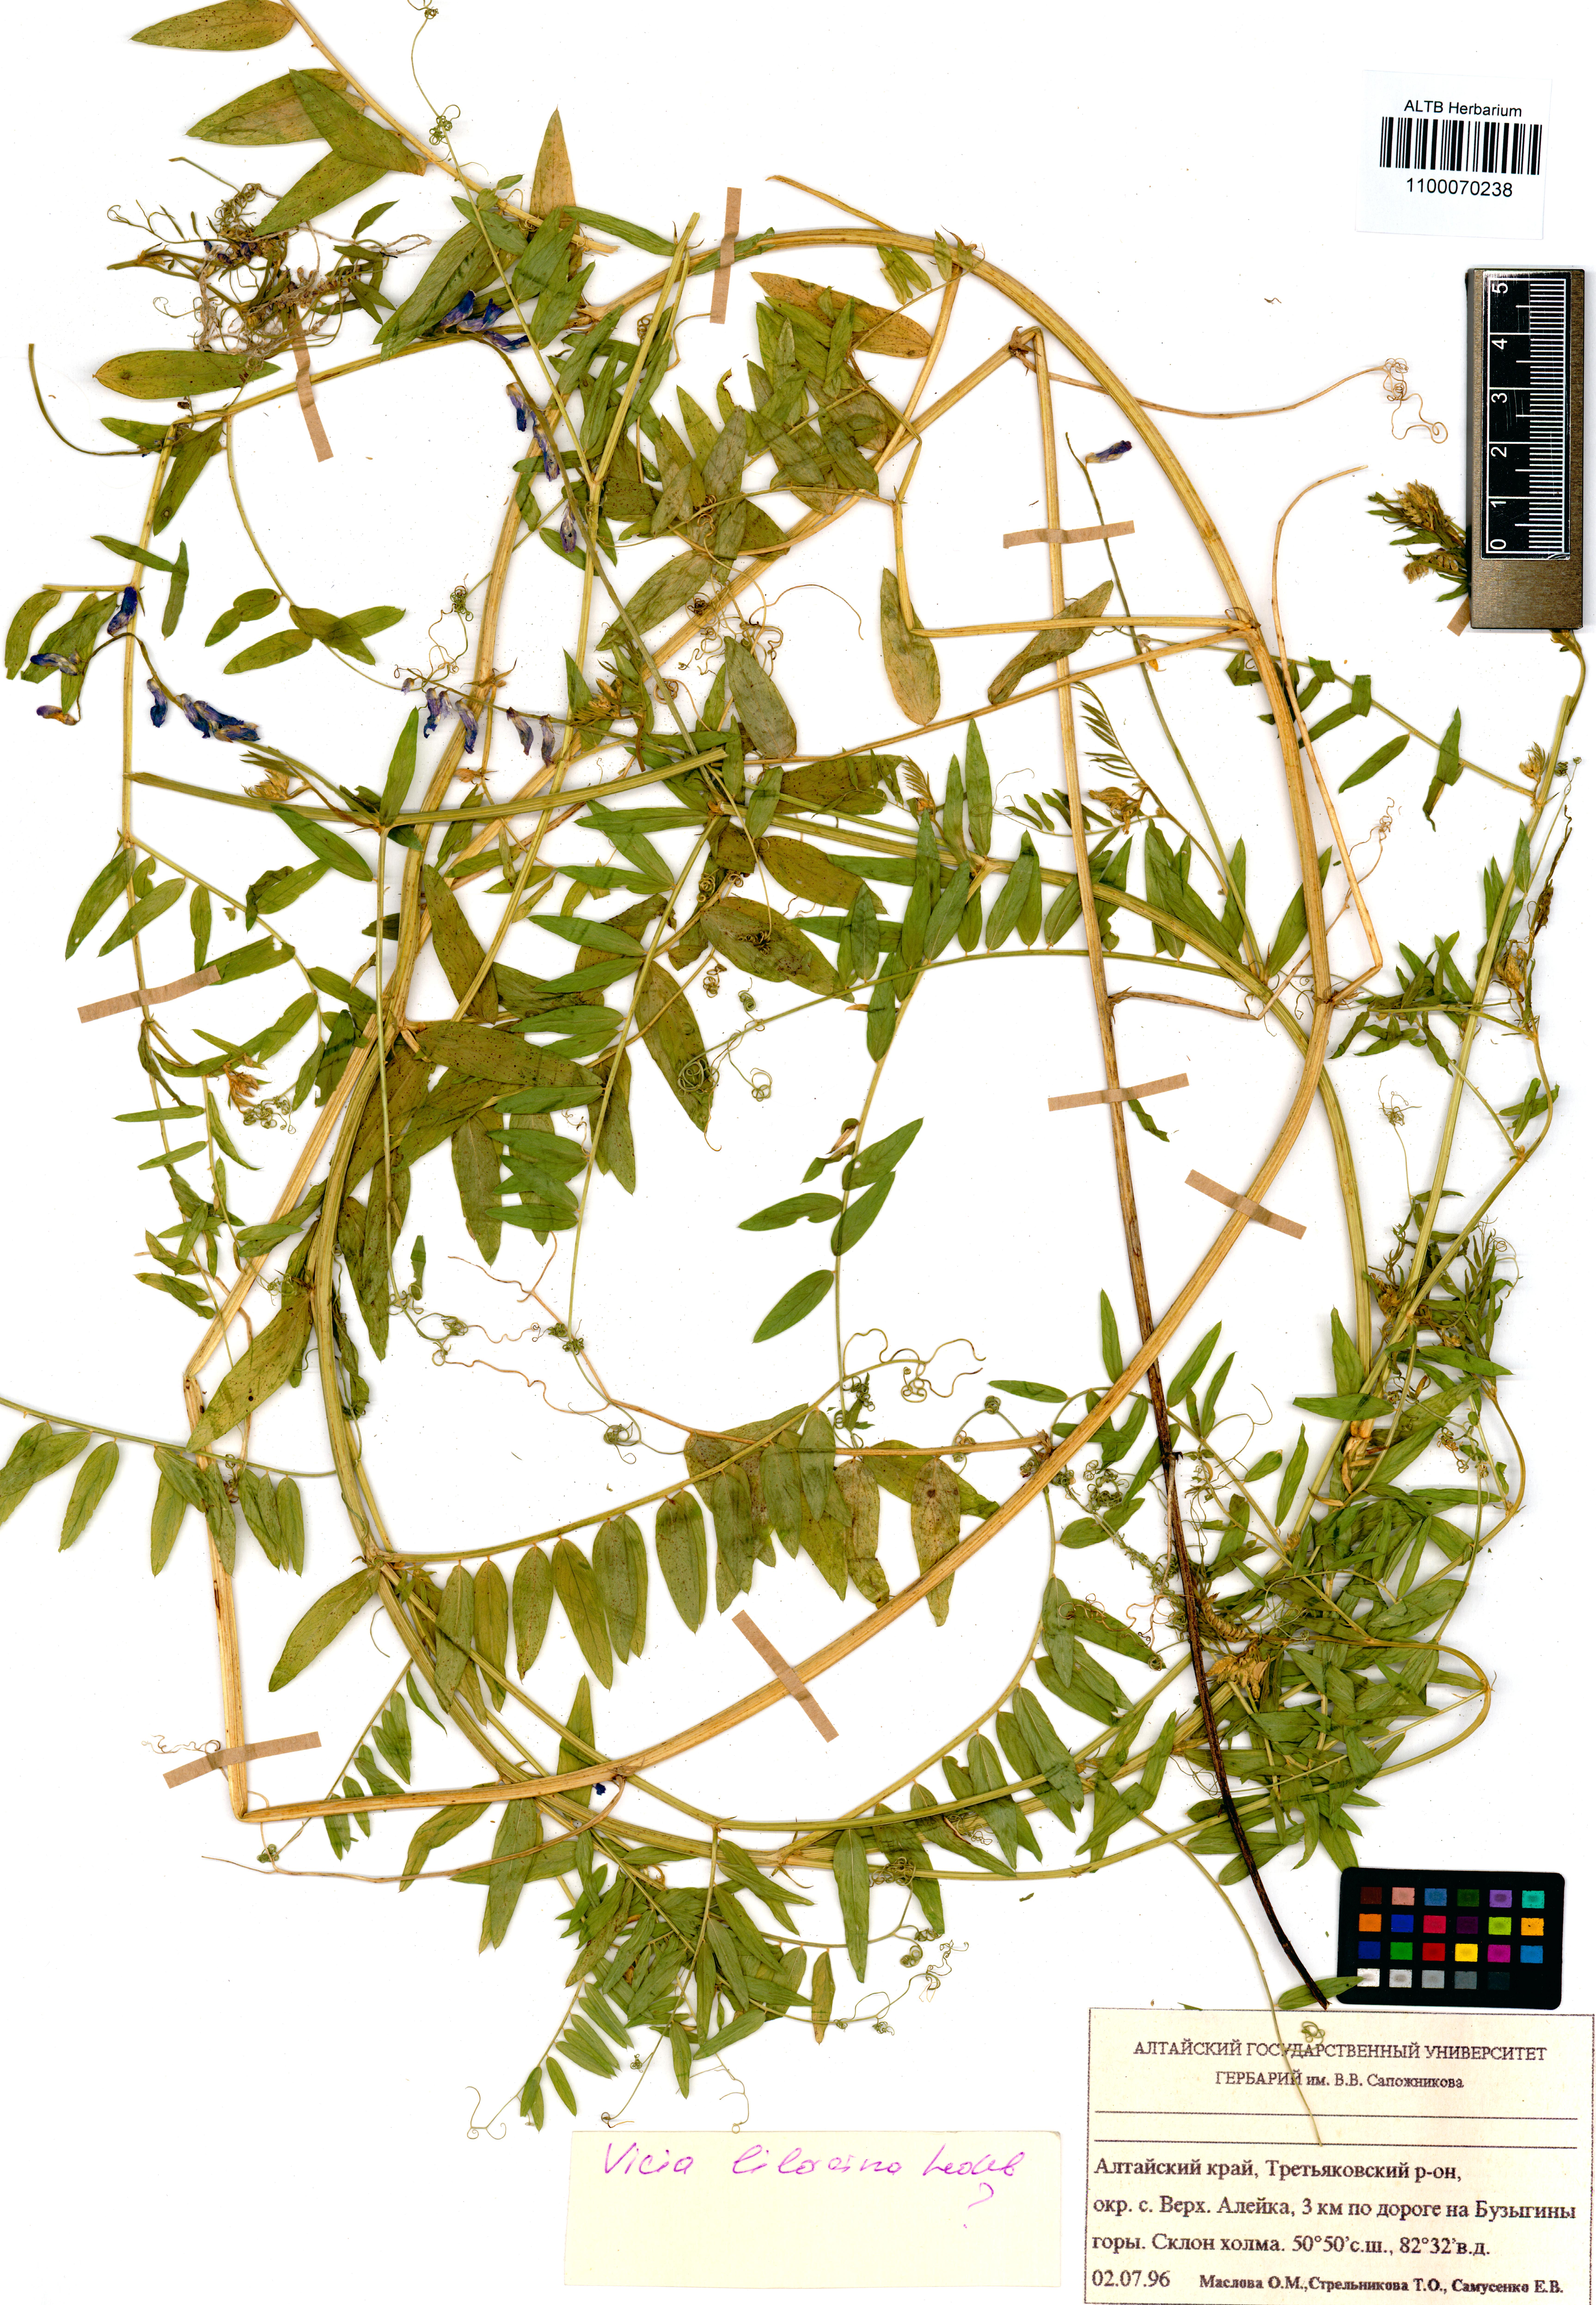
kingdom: Plantae
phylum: Tracheophyta
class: Magnoliopsida
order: Fabales
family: Fabaceae
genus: Vicia
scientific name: Vicia lilacina
